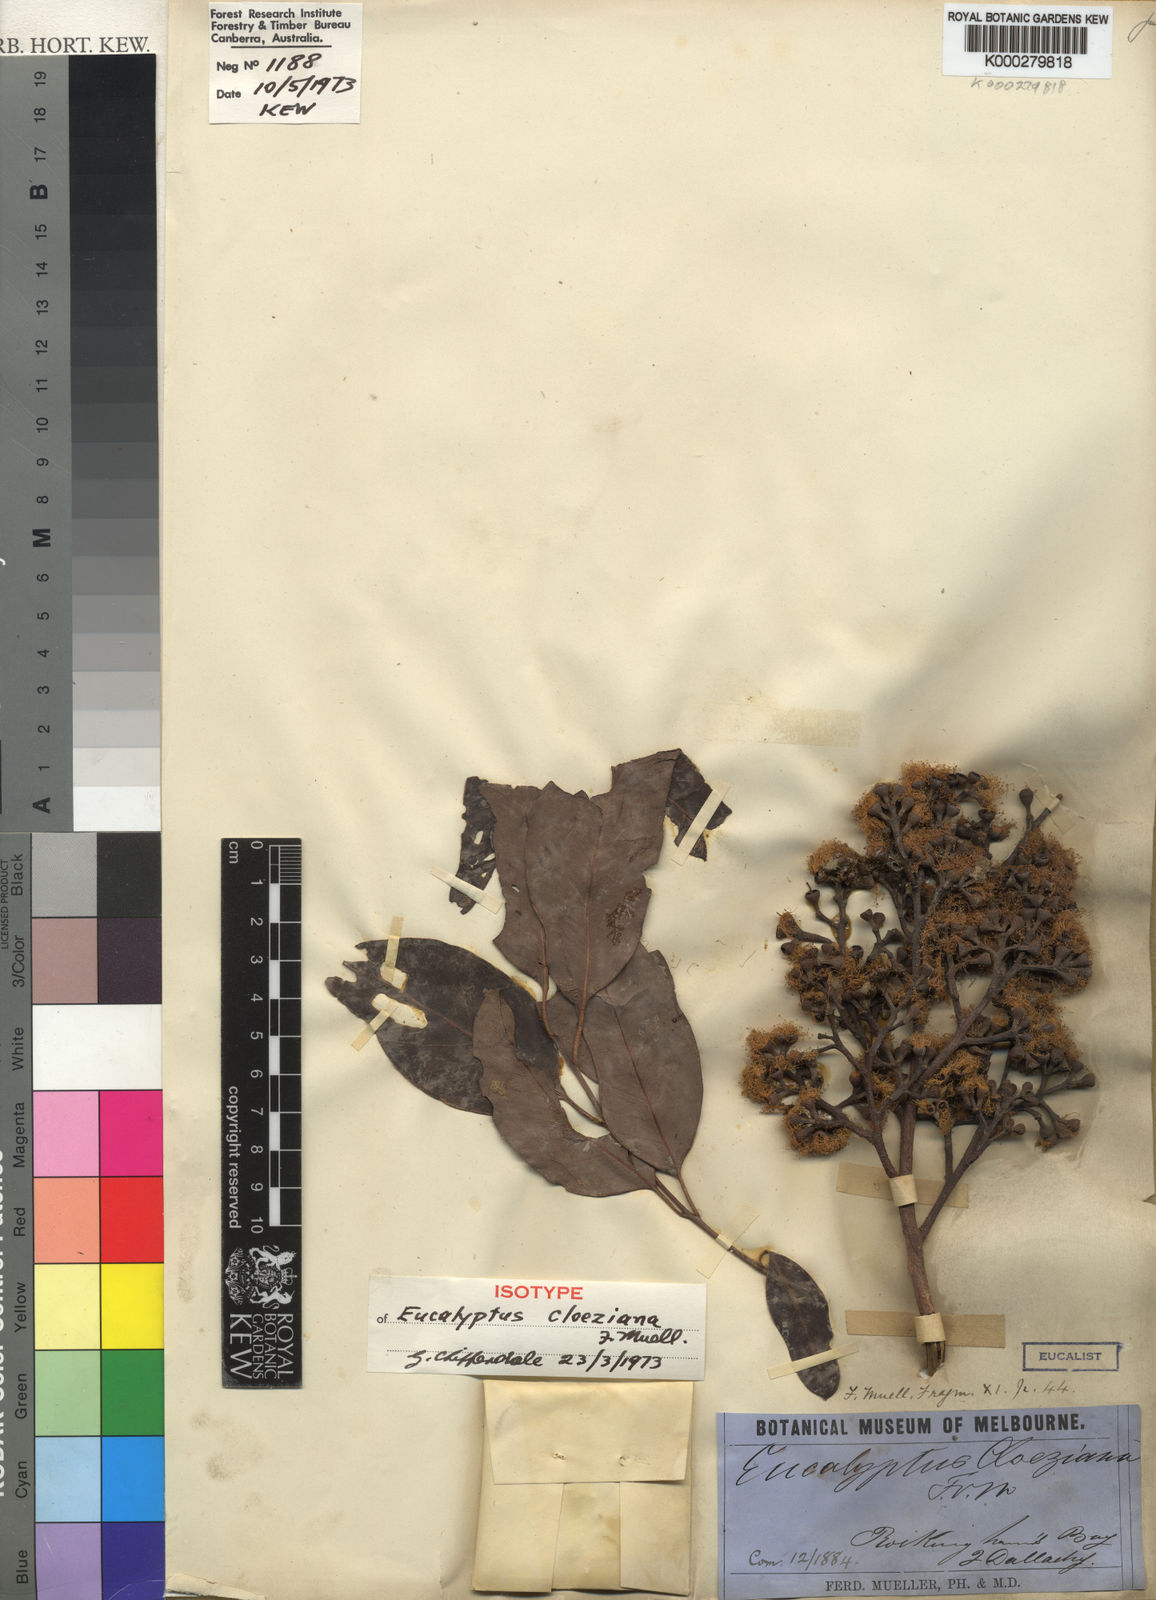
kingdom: Plantae
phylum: Tracheophyta
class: Magnoliopsida
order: Myrtales
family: Myrtaceae
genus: Eucalyptus
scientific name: Eucalyptus cloeziana
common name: Gympie messmate
